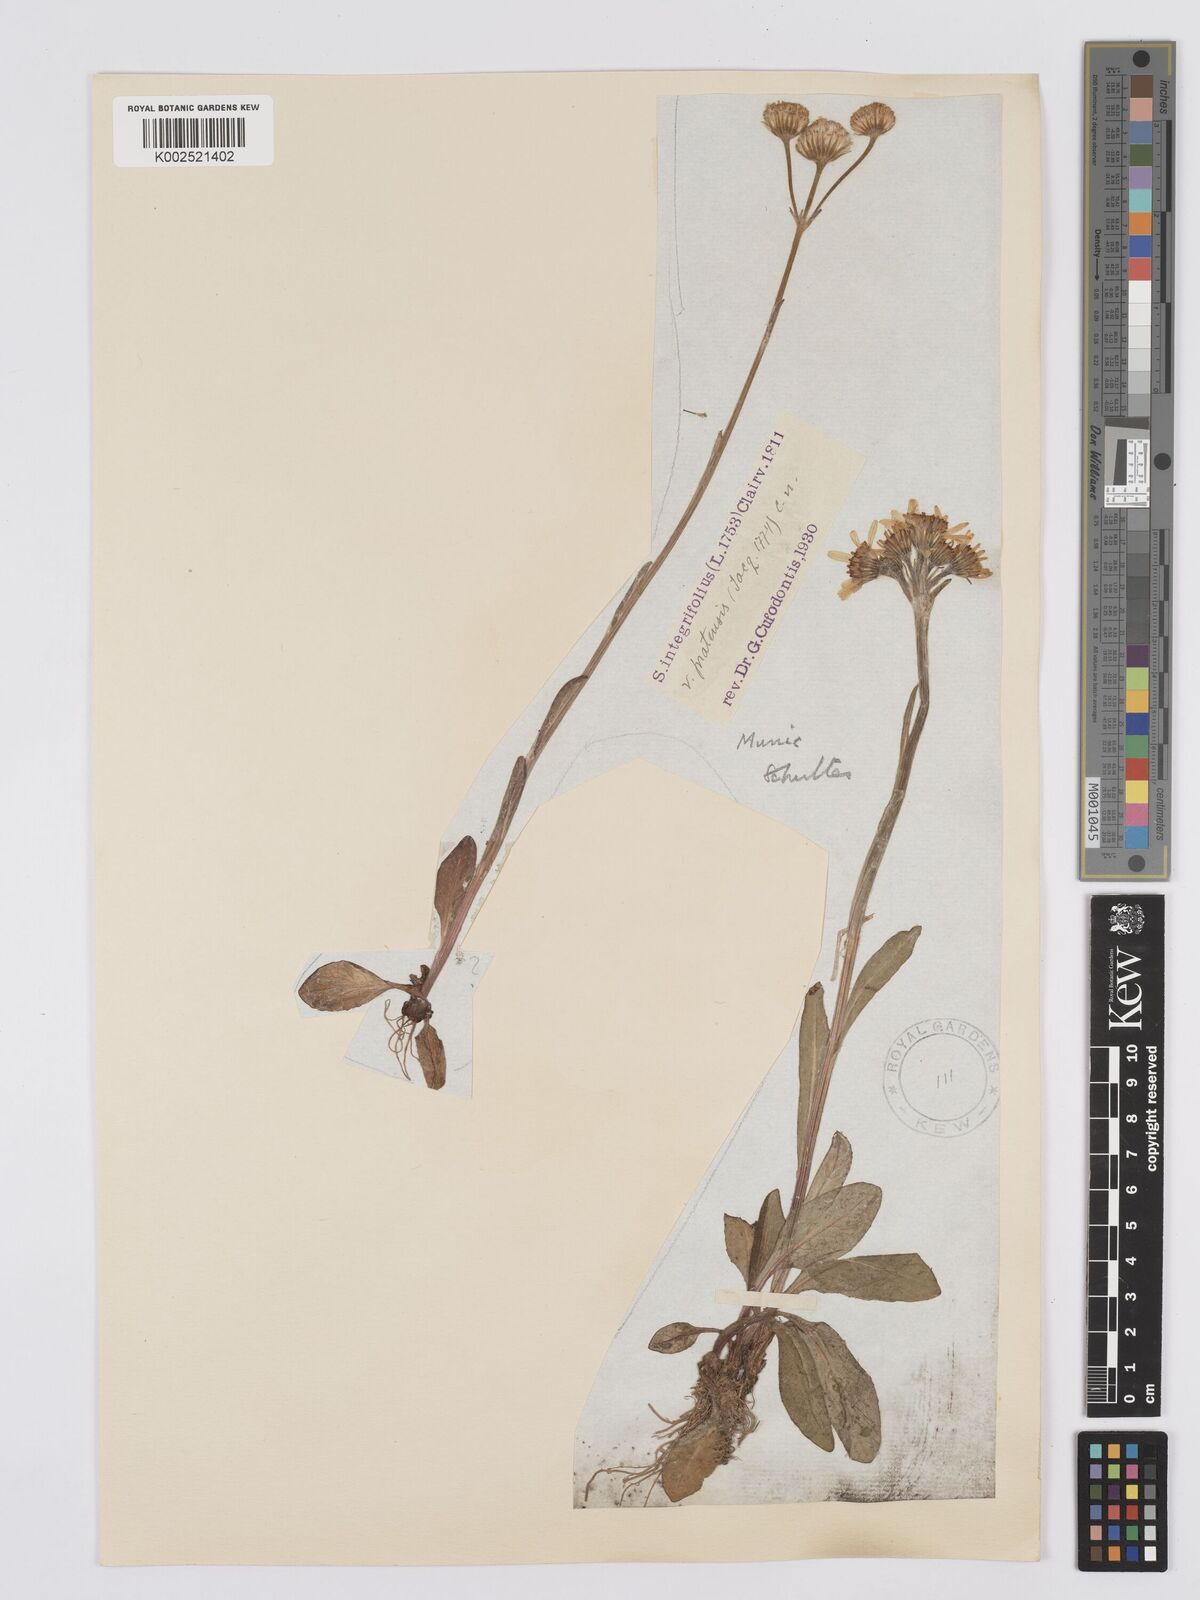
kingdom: Plantae
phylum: Tracheophyta
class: Magnoliopsida
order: Asterales
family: Asteraceae
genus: Tephroseris
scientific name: Tephroseris integrifolia
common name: Field fleawort
